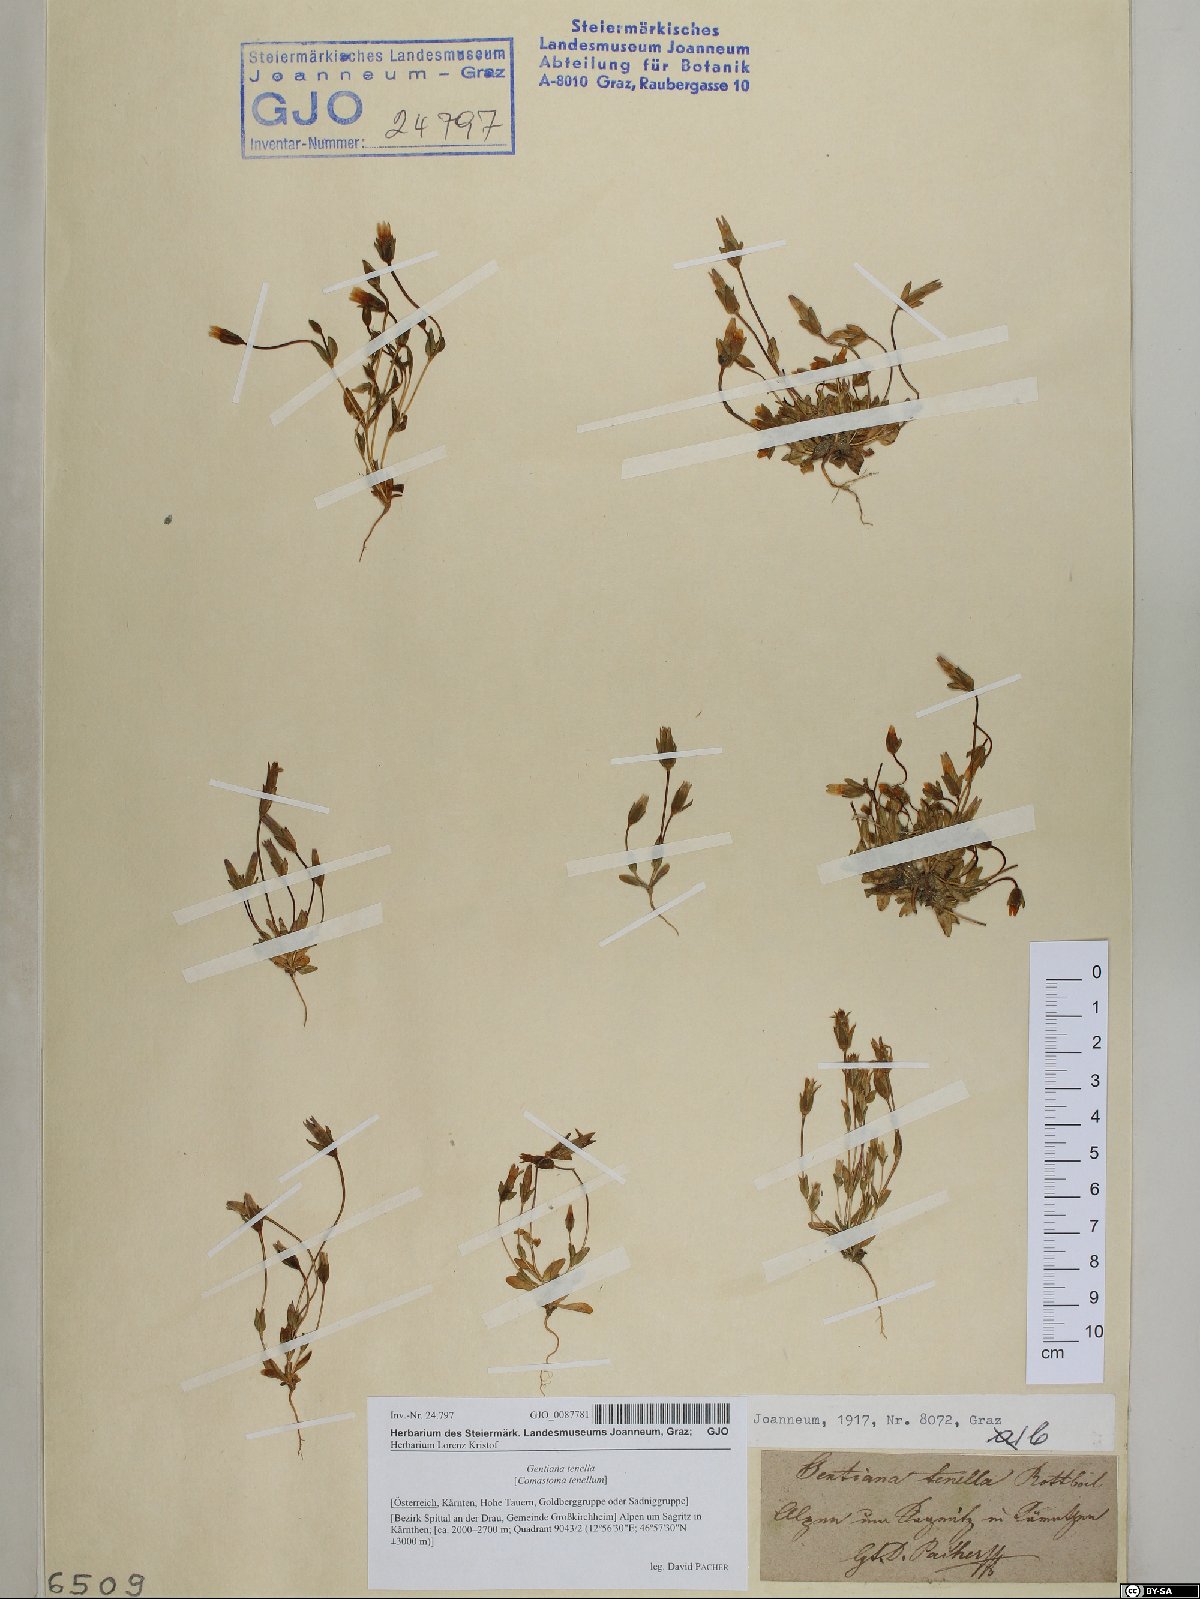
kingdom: Plantae
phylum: Tracheophyta
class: Magnoliopsida
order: Gentianales
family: Gentianaceae
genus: Comastoma
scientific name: Comastoma tenellum
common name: Dane's dwarf gentian
